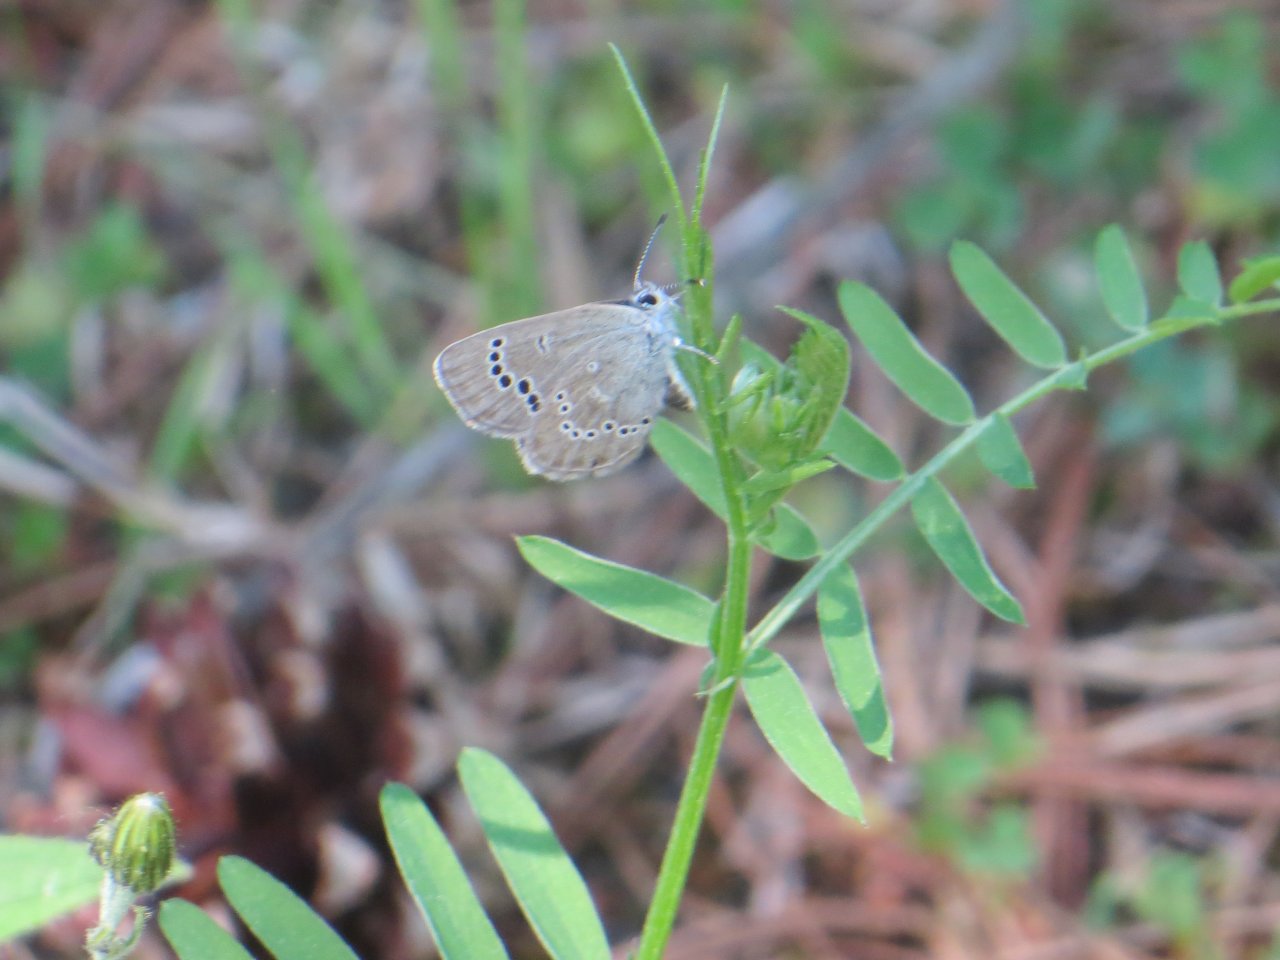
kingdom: Animalia
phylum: Arthropoda
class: Insecta
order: Lepidoptera
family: Lycaenidae
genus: Glaucopsyche
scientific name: Glaucopsyche lygdamus
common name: Silvery Blue
